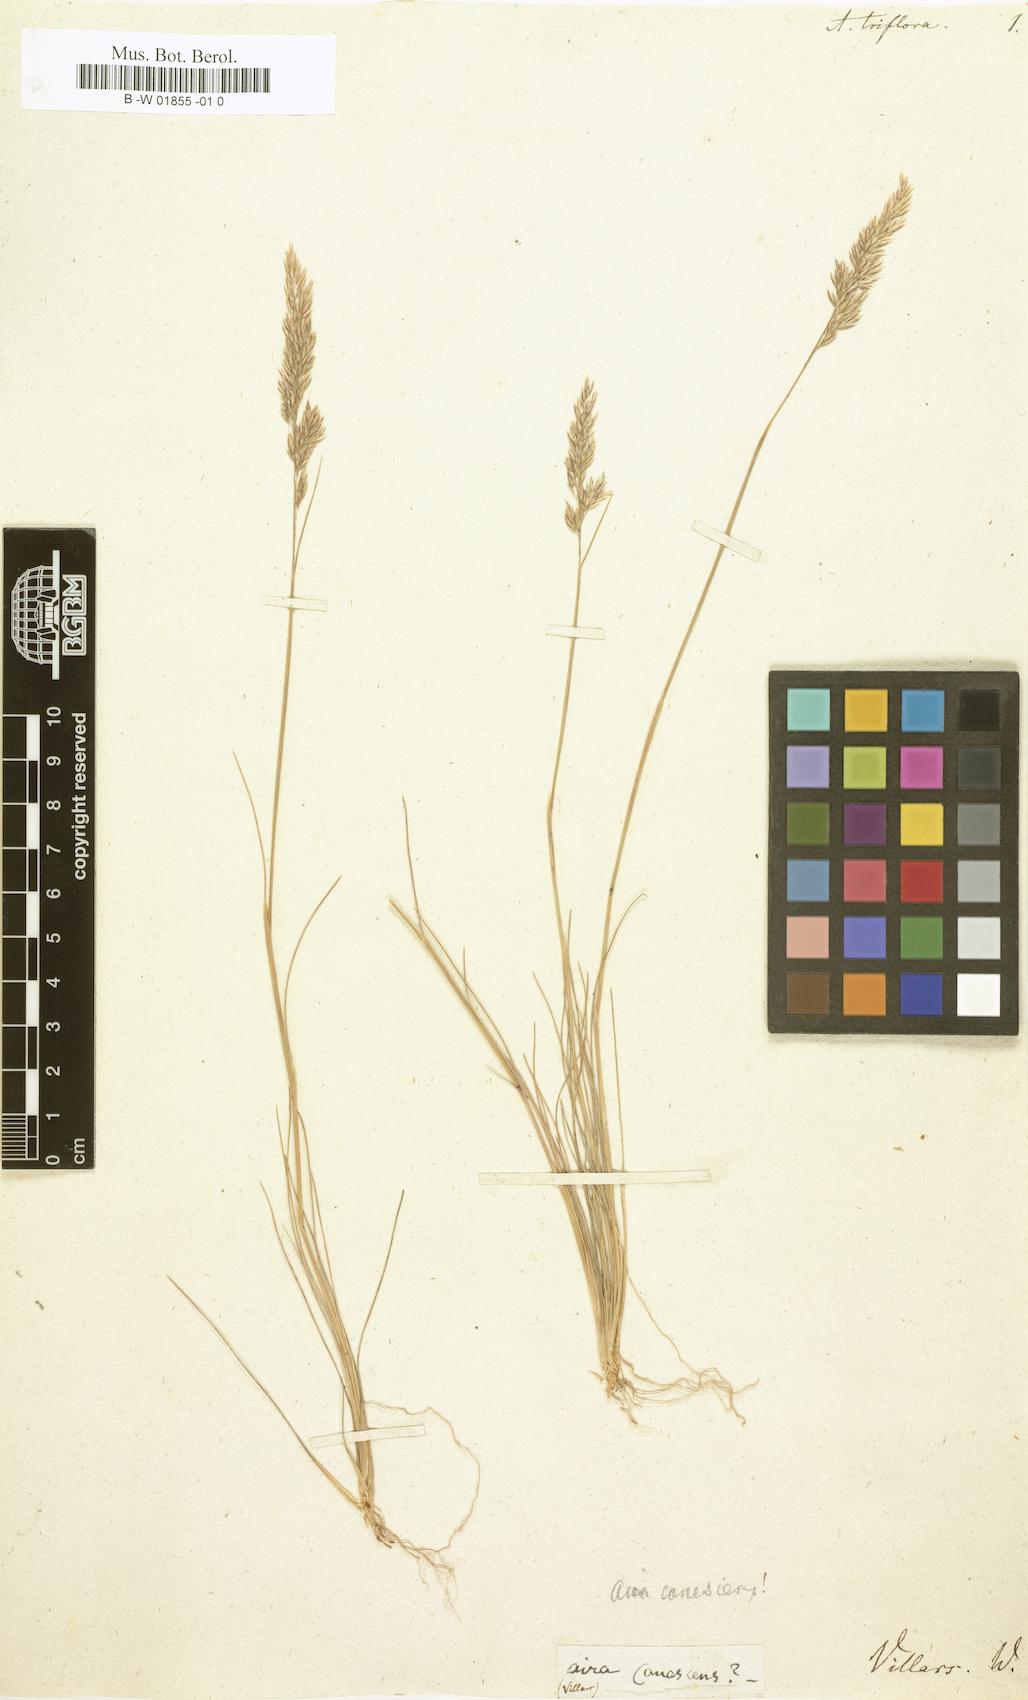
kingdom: Plantae
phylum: Tracheophyta
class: Liliopsida
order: Poales
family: Poaceae
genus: Poa
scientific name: Poa cuspidata
